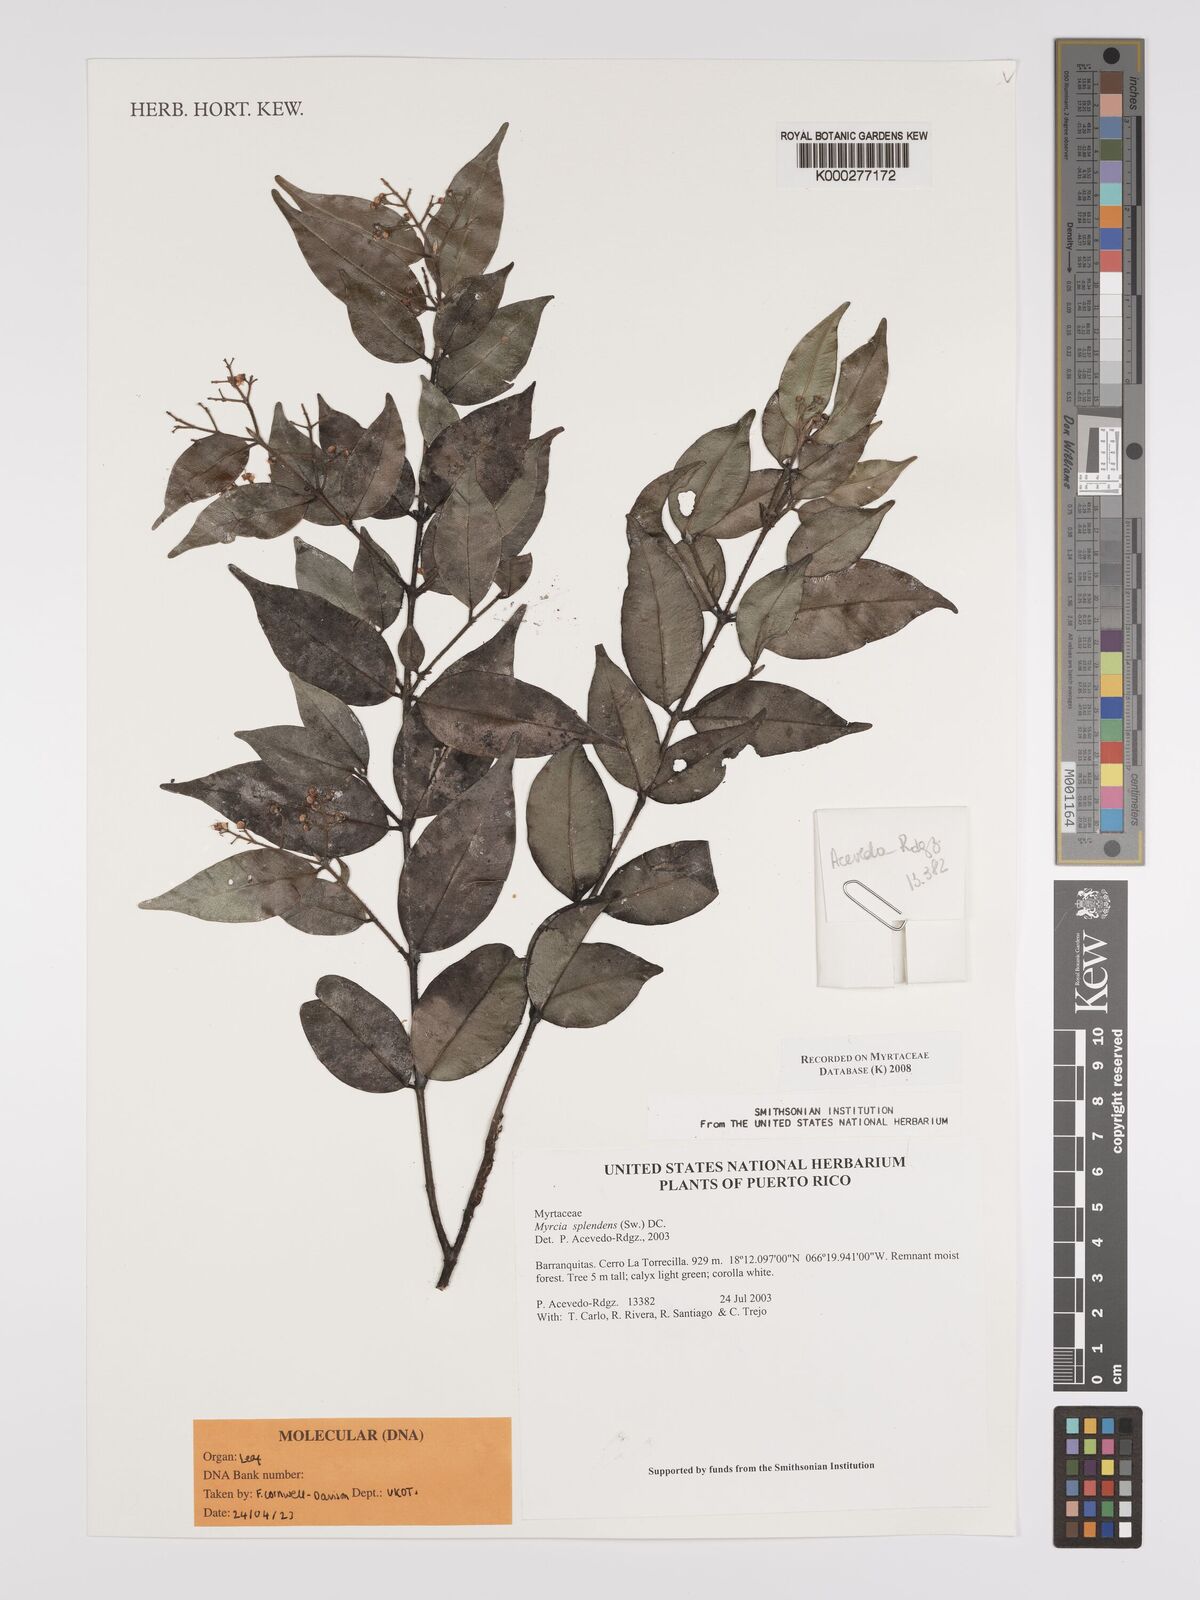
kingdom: Plantae
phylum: Tracheophyta
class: Magnoliopsida
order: Myrtales
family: Myrtaceae
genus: Myrcia
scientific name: Myrcia splendens
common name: Surinam cherry
